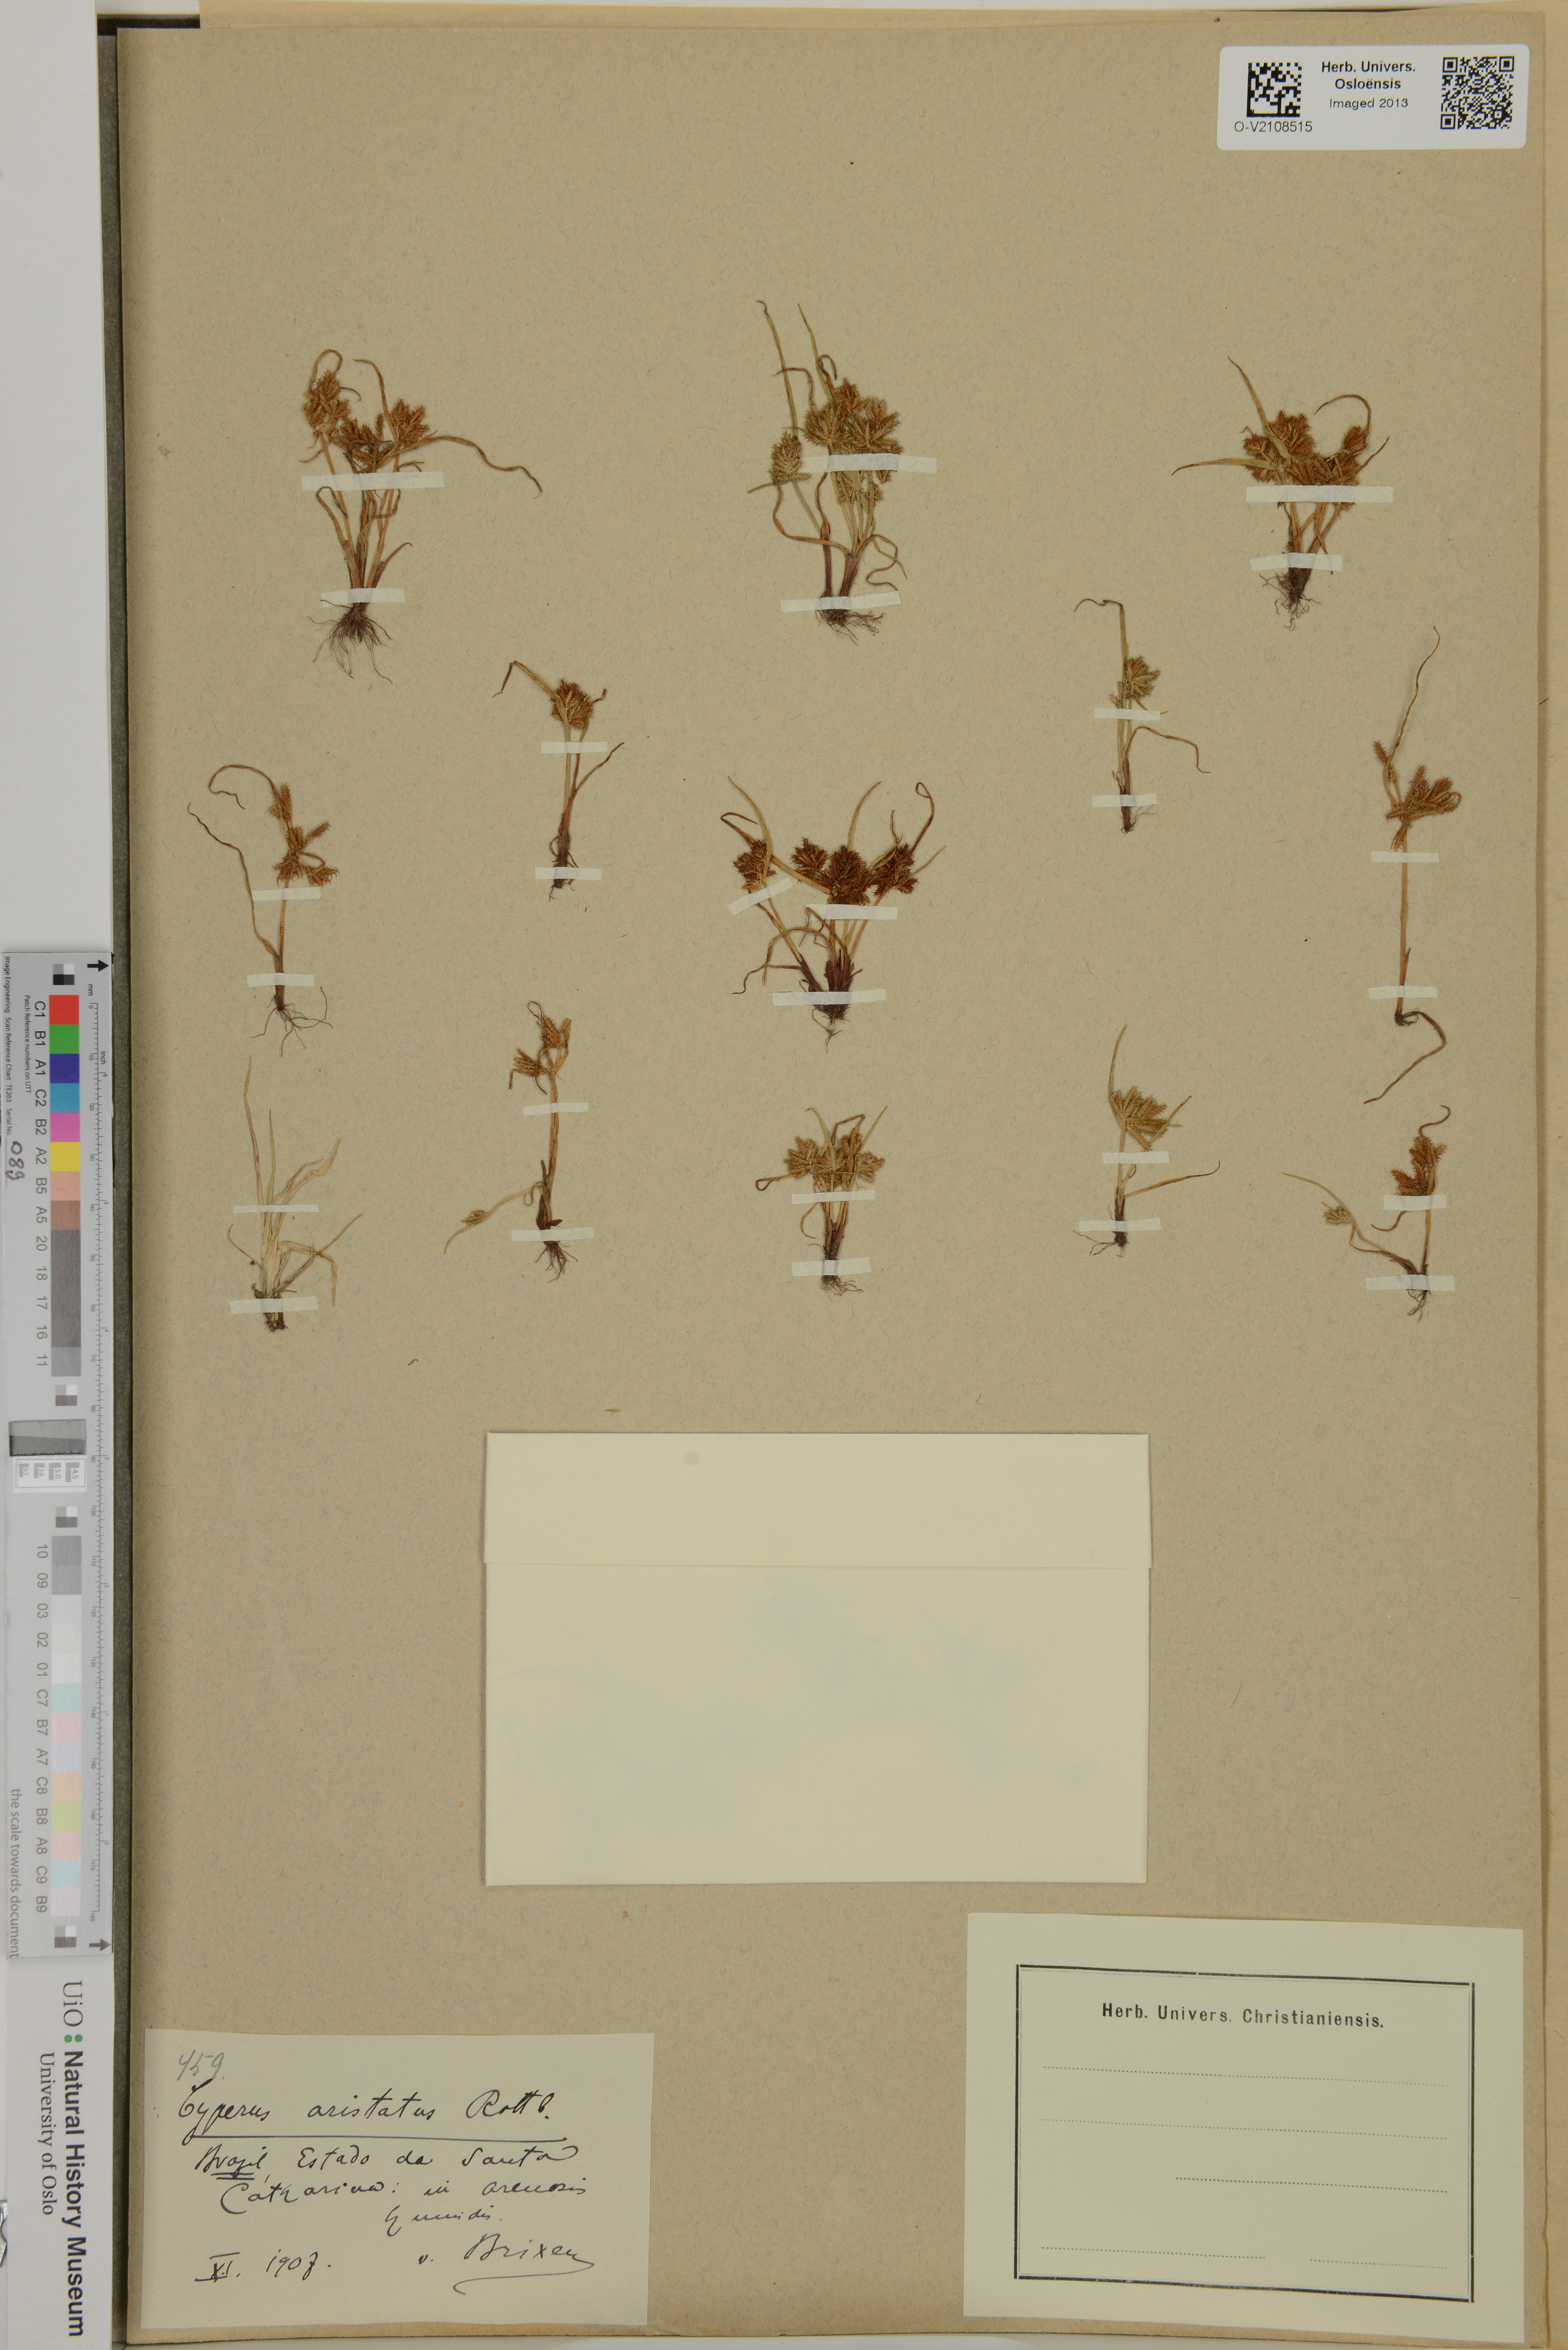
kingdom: Plantae
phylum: Tracheophyta
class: Liliopsida
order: Poales
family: Cyperaceae
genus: Cyperus
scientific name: Cyperus
